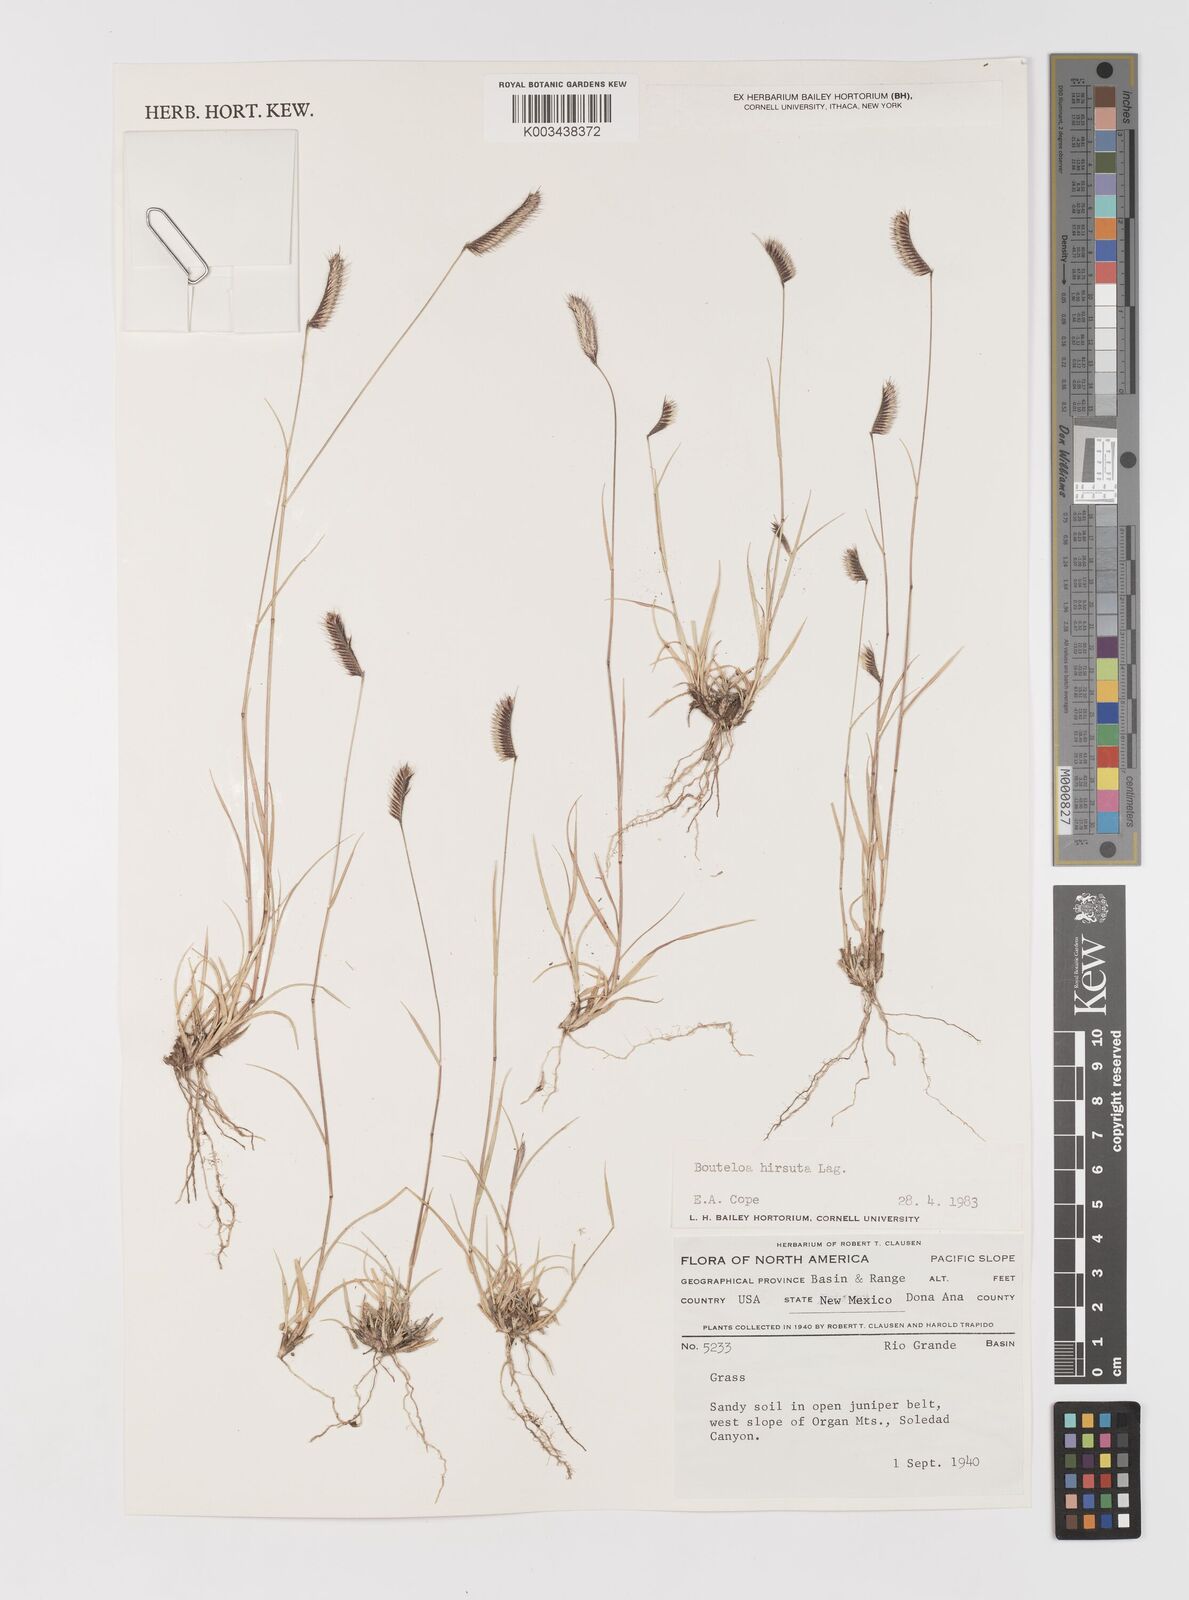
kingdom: Plantae
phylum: Tracheophyta
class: Liliopsida
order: Poales
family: Poaceae
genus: Bouteloua
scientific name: Bouteloua hirsuta
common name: Hairy grama
